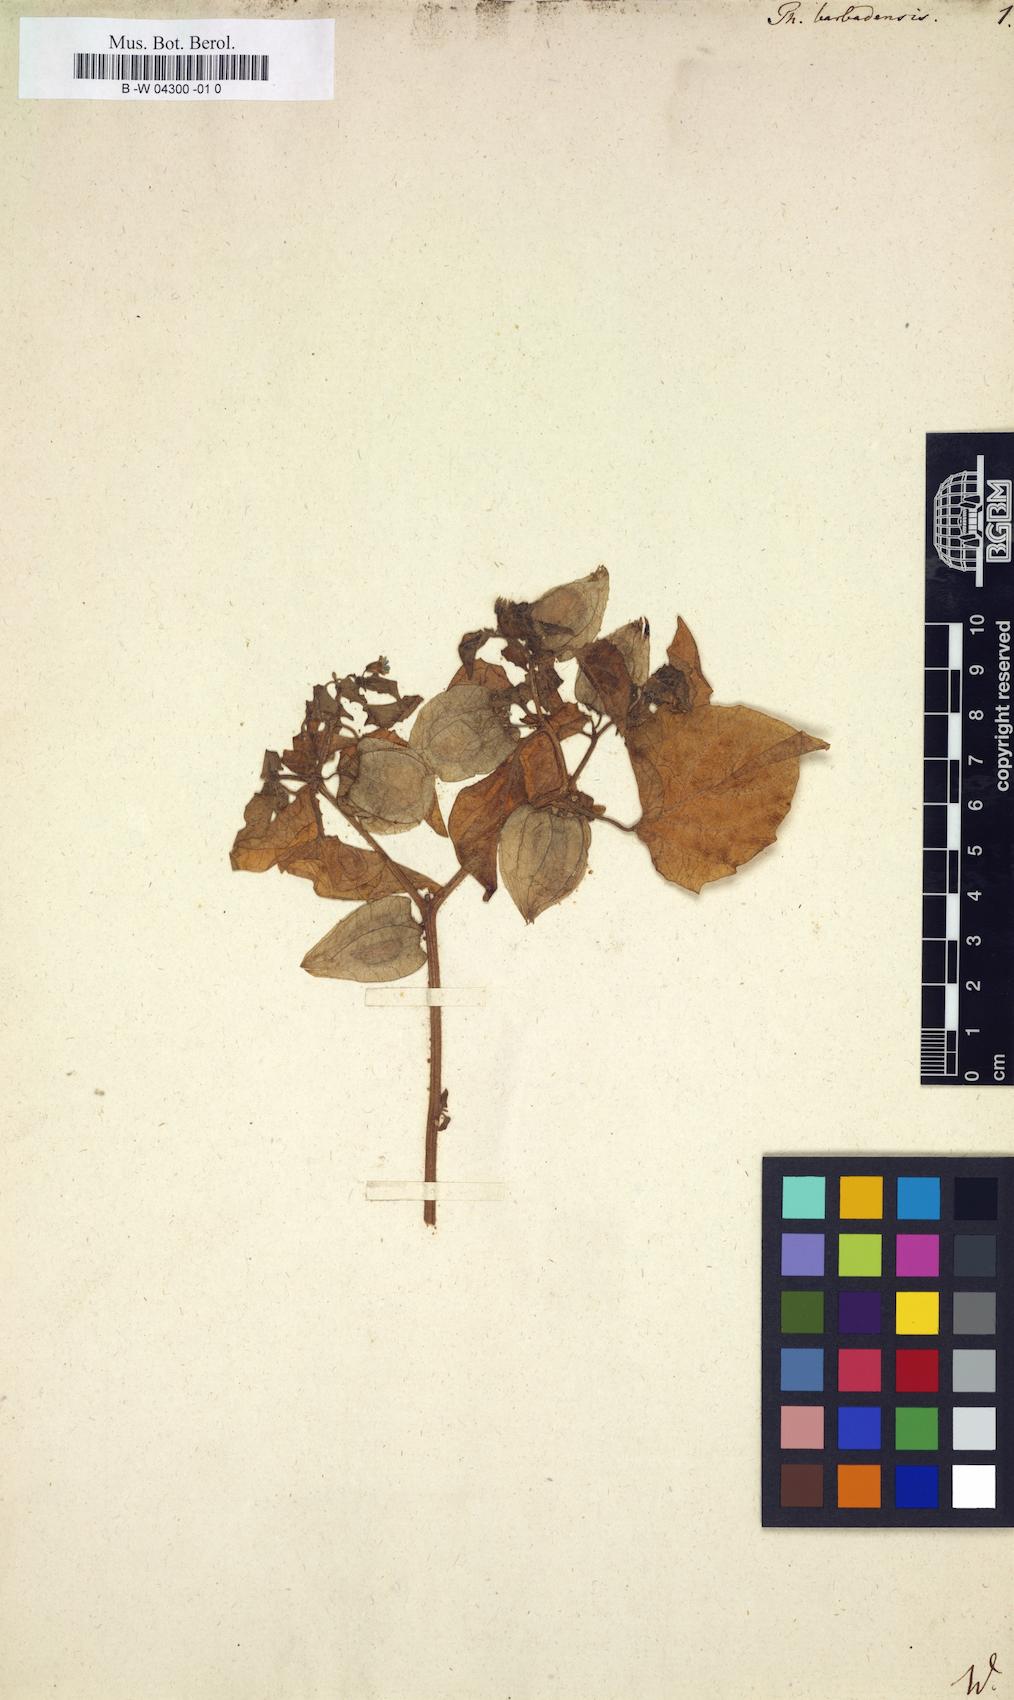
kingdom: Plantae
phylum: Tracheophyta
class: Magnoliopsida
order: Solanales
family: Solanaceae
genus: Physalis
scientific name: Physalis pubescens
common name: Downy ground-cherry
